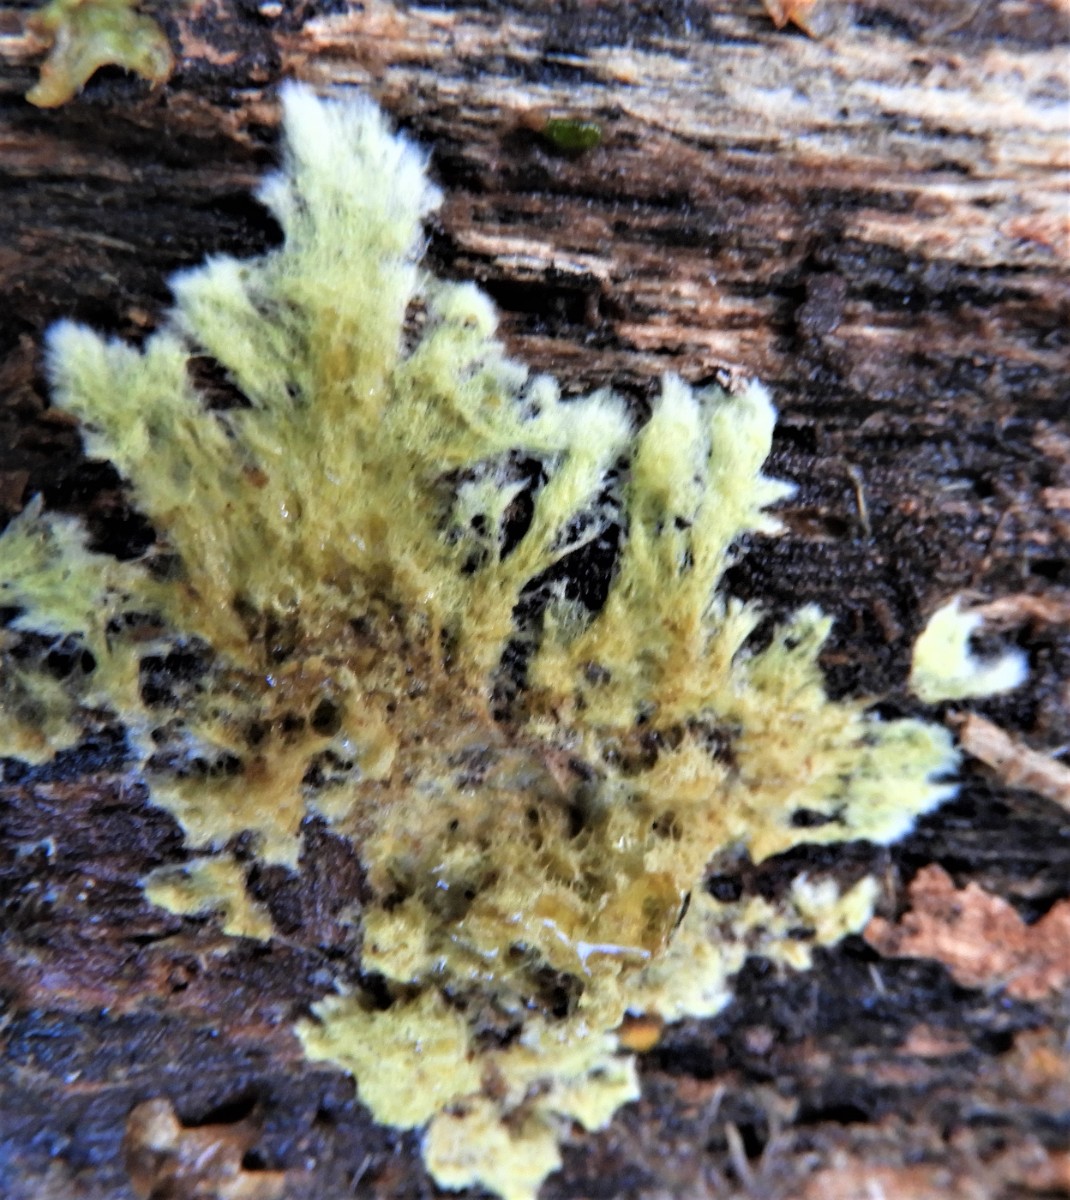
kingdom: Fungi
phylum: Basidiomycota
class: Agaricomycetes
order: Russulales
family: Xenasmataceae
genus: Xenasmatella
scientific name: Xenasmatella vaga
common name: svovl-strenghinde
